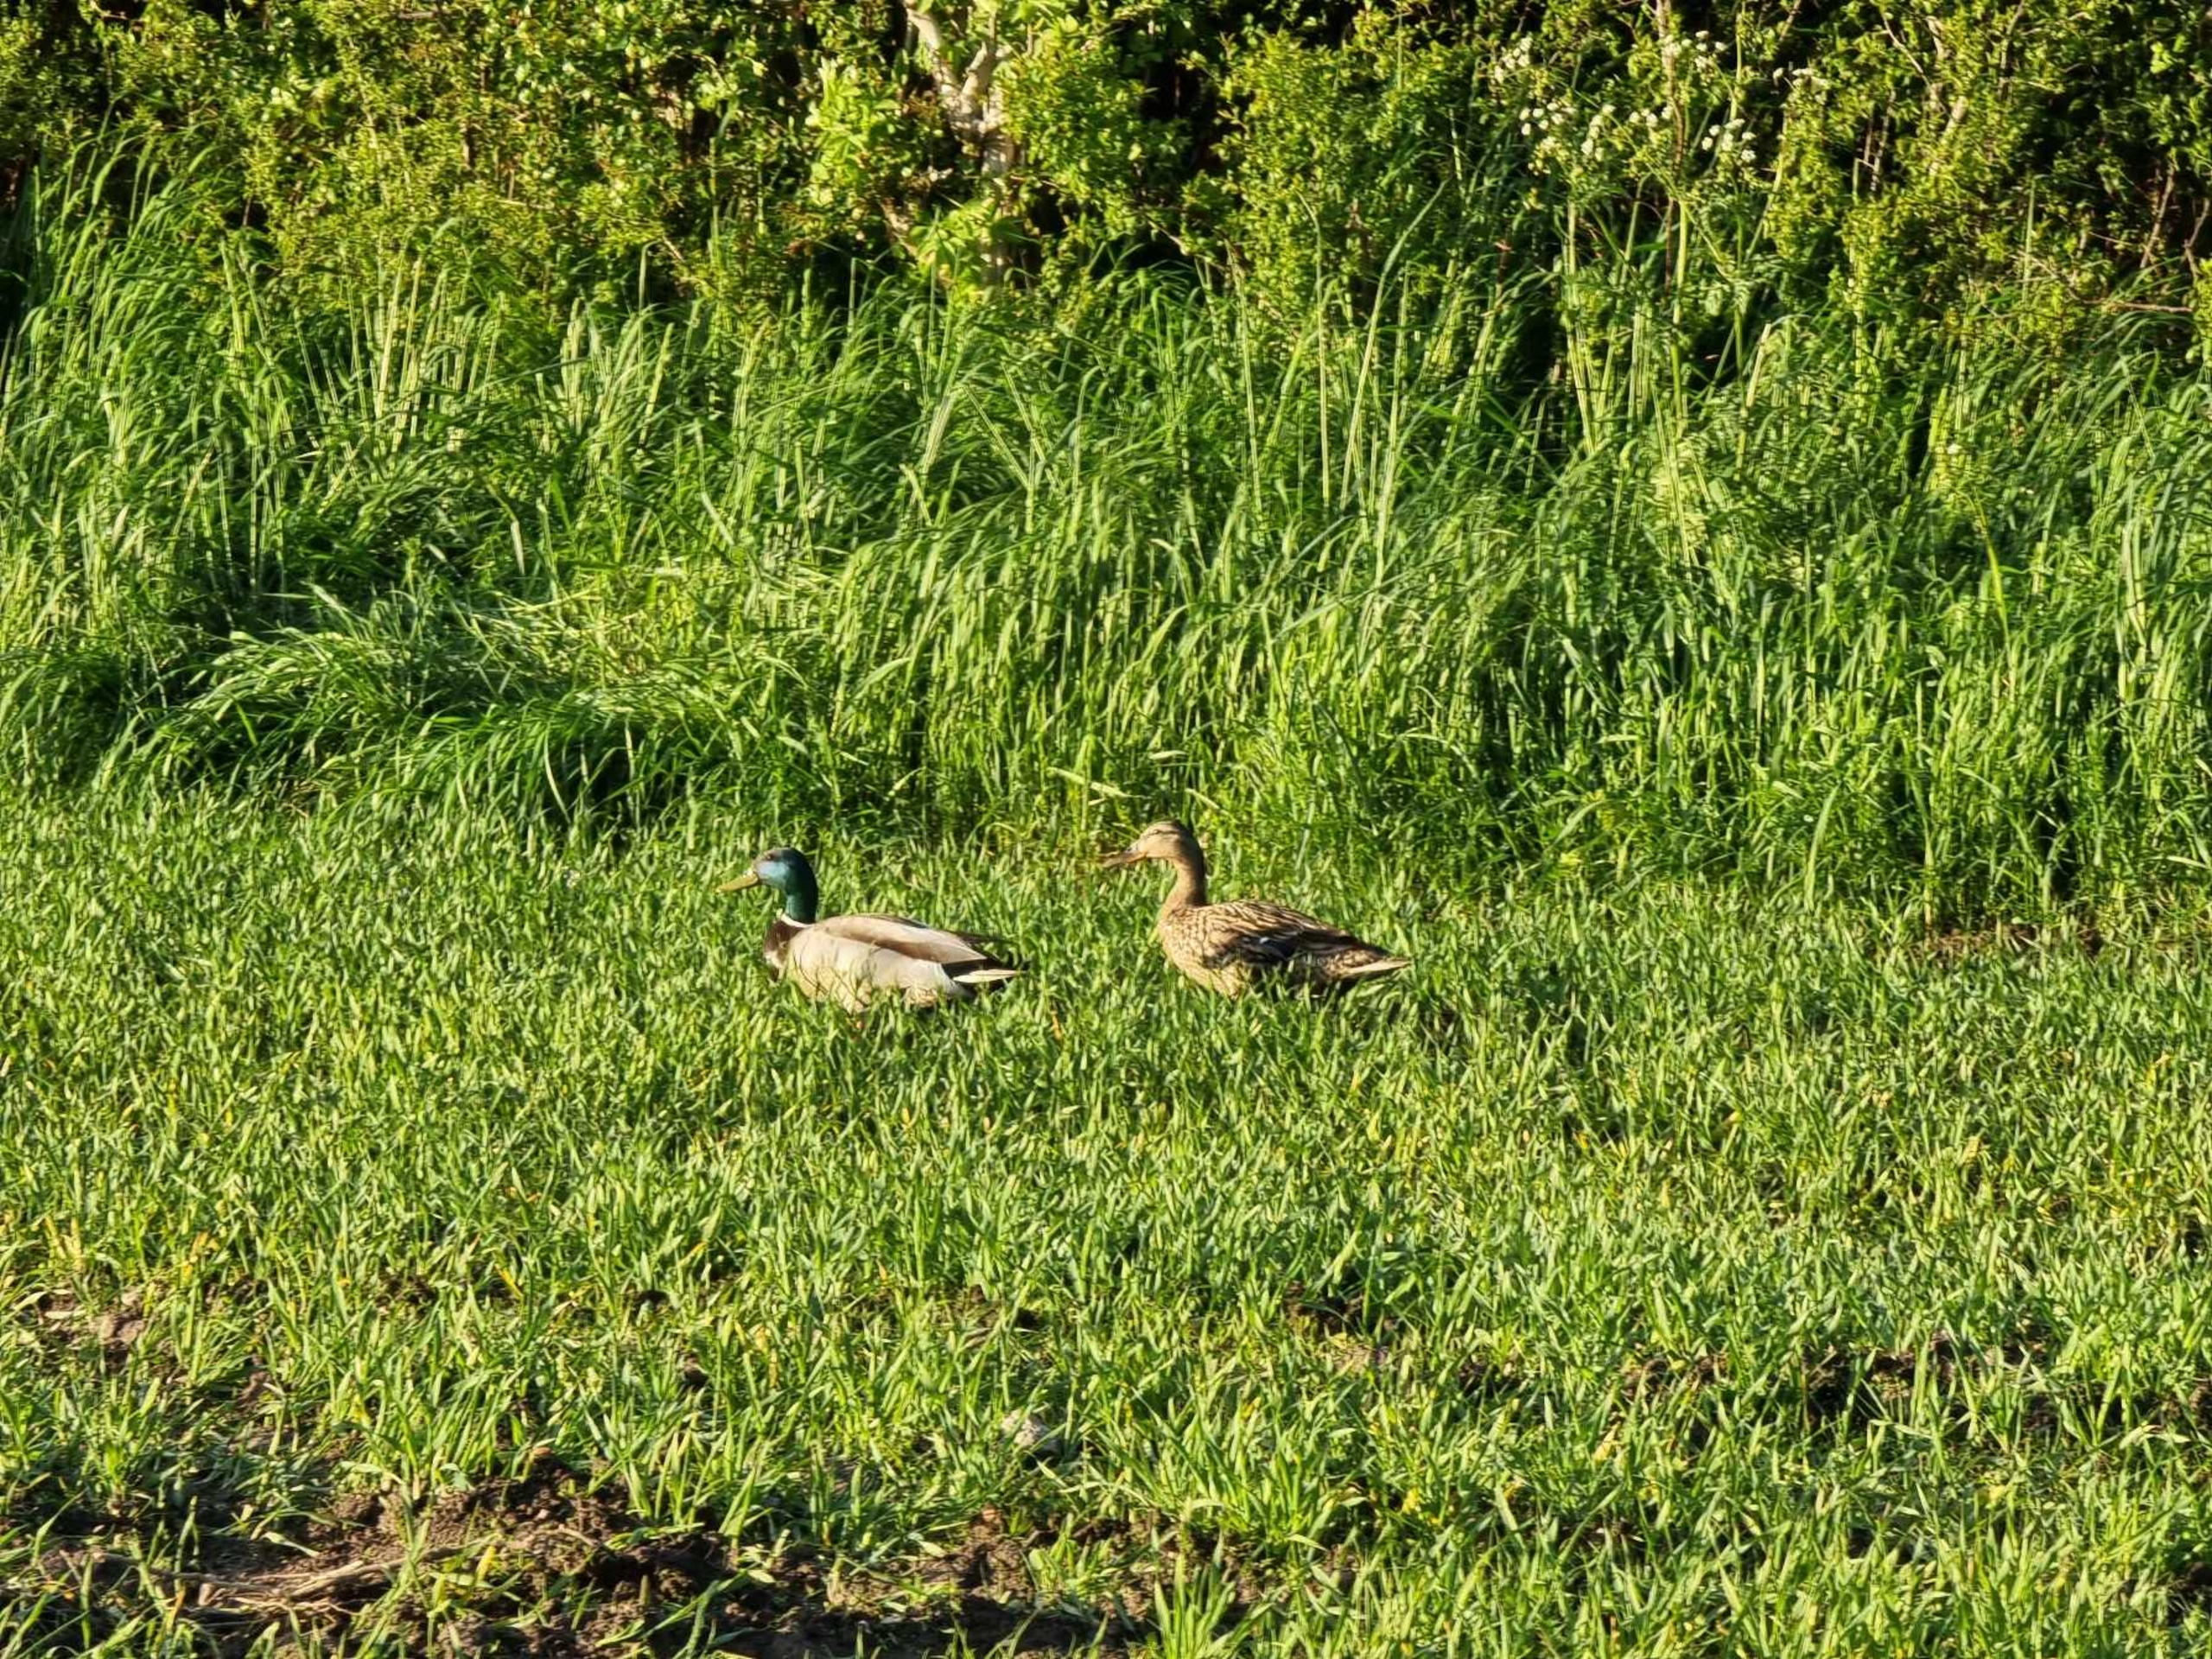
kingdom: Animalia
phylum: Chordata
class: Aves
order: Anseriformes
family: Anatidae
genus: Anas
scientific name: Anas platyrhynchos
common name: Gråand
